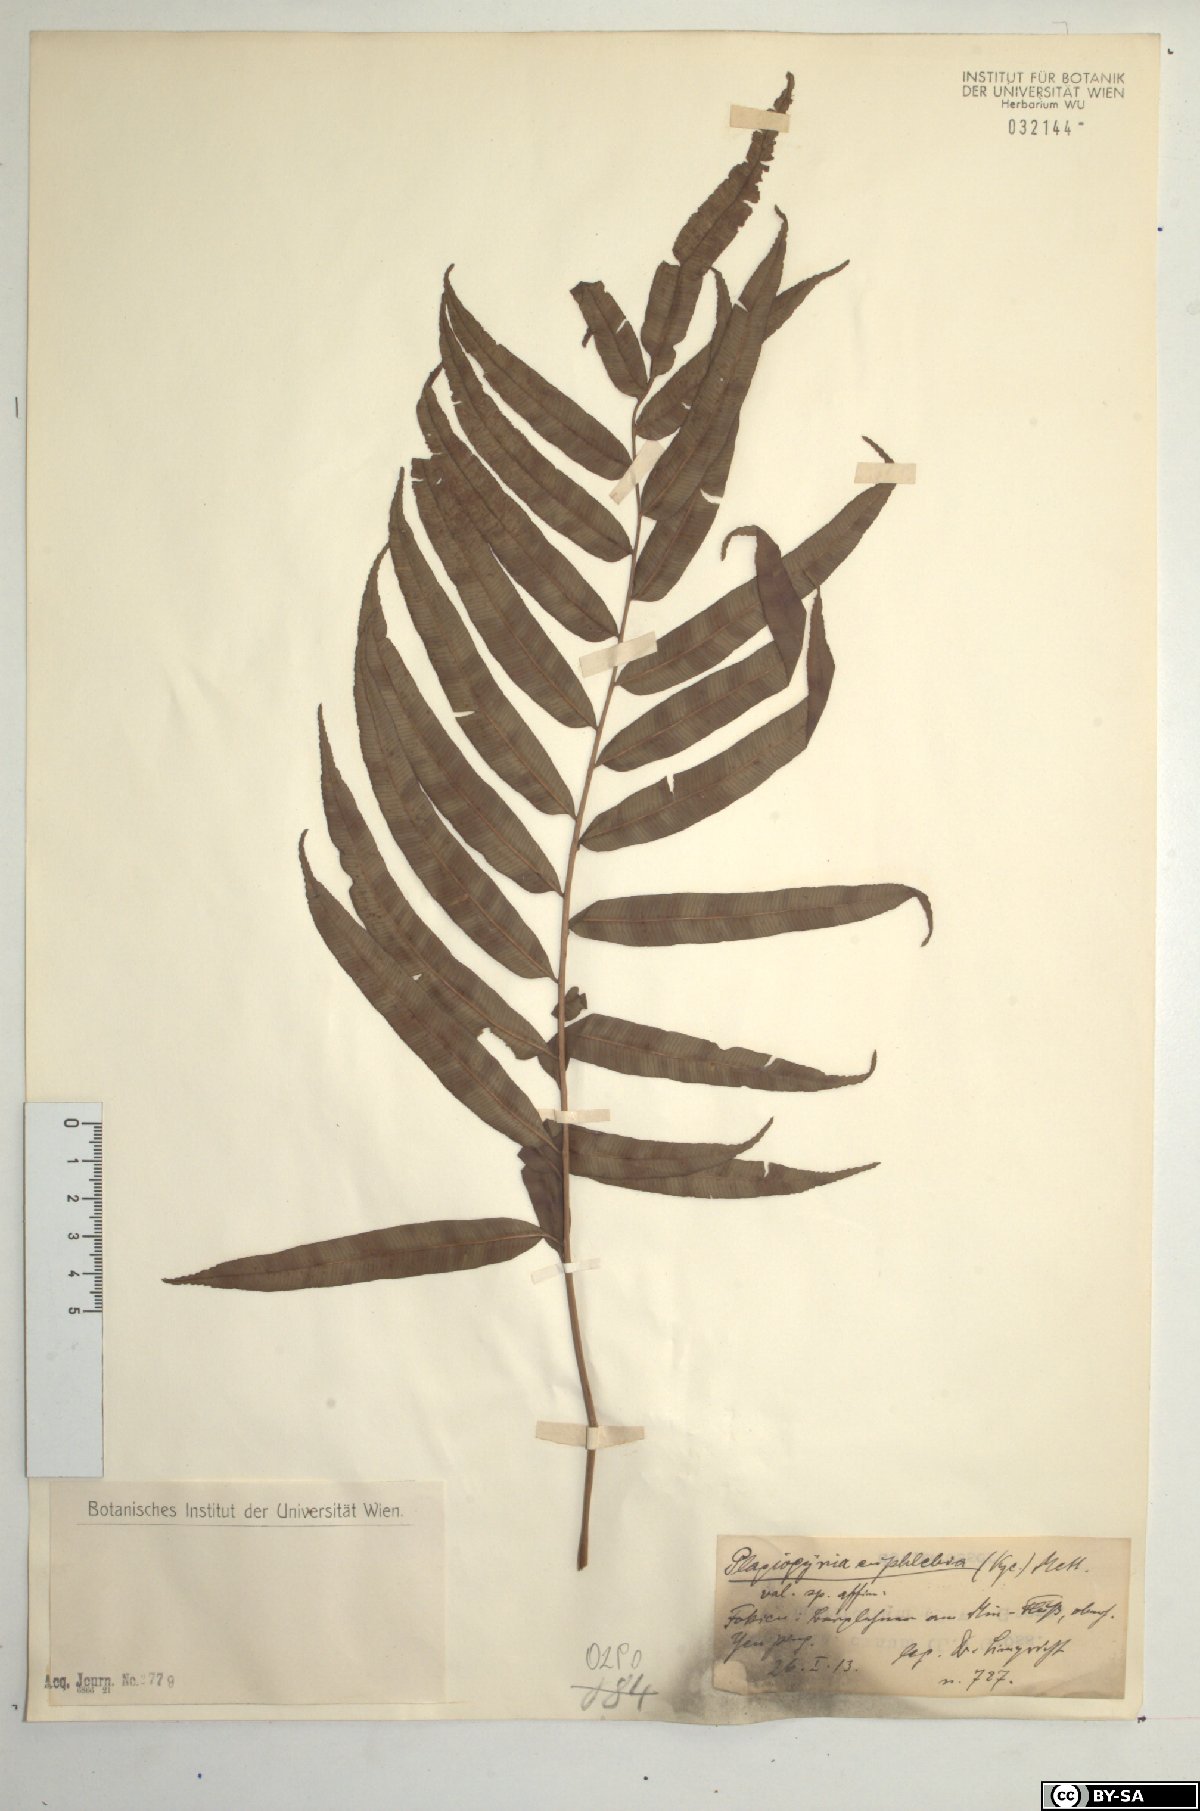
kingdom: Plantae
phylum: Tracheophyta
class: Polypodiopsida
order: Cyatheales
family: Plagiogyriaceae
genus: Plagiogyria
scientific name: Plagiogyria euphlebia
